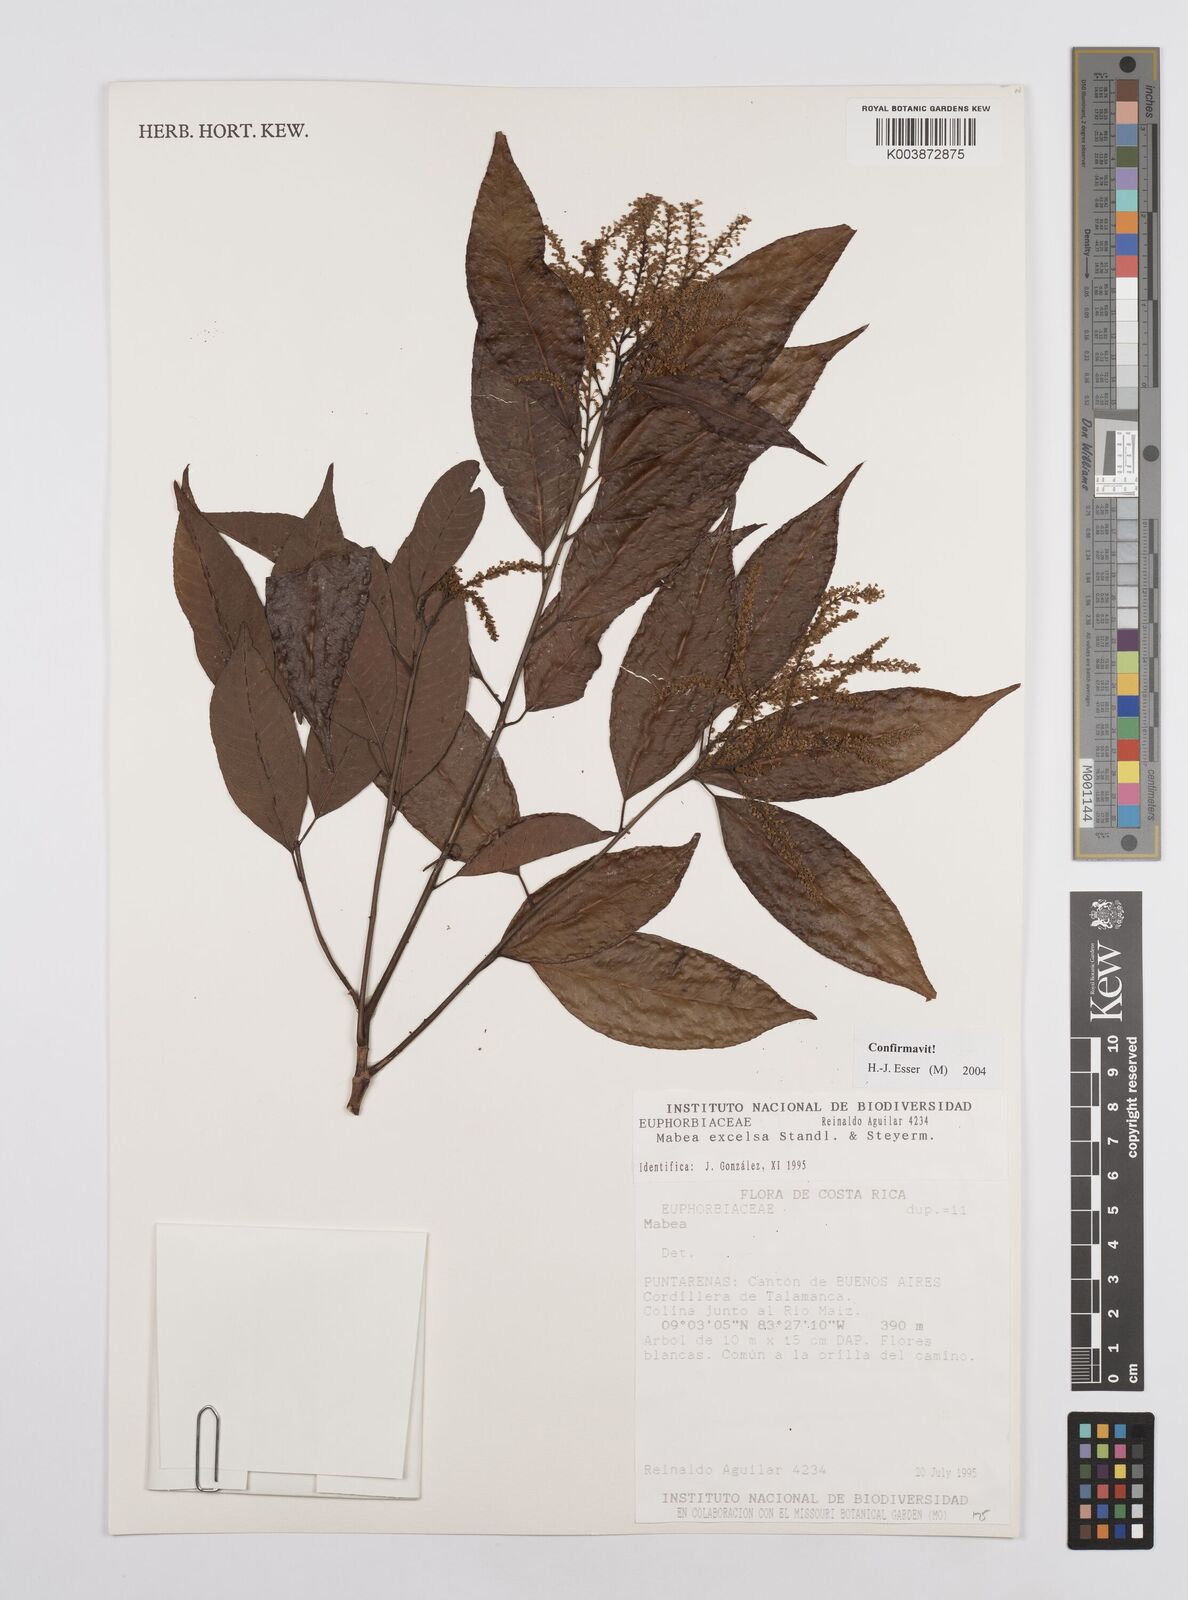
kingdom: Plantae
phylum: Tracheophyta
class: Magnoliopsida
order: Malpighiales
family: Euphorbiaceae
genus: Mabea
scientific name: Mabea excelsa
